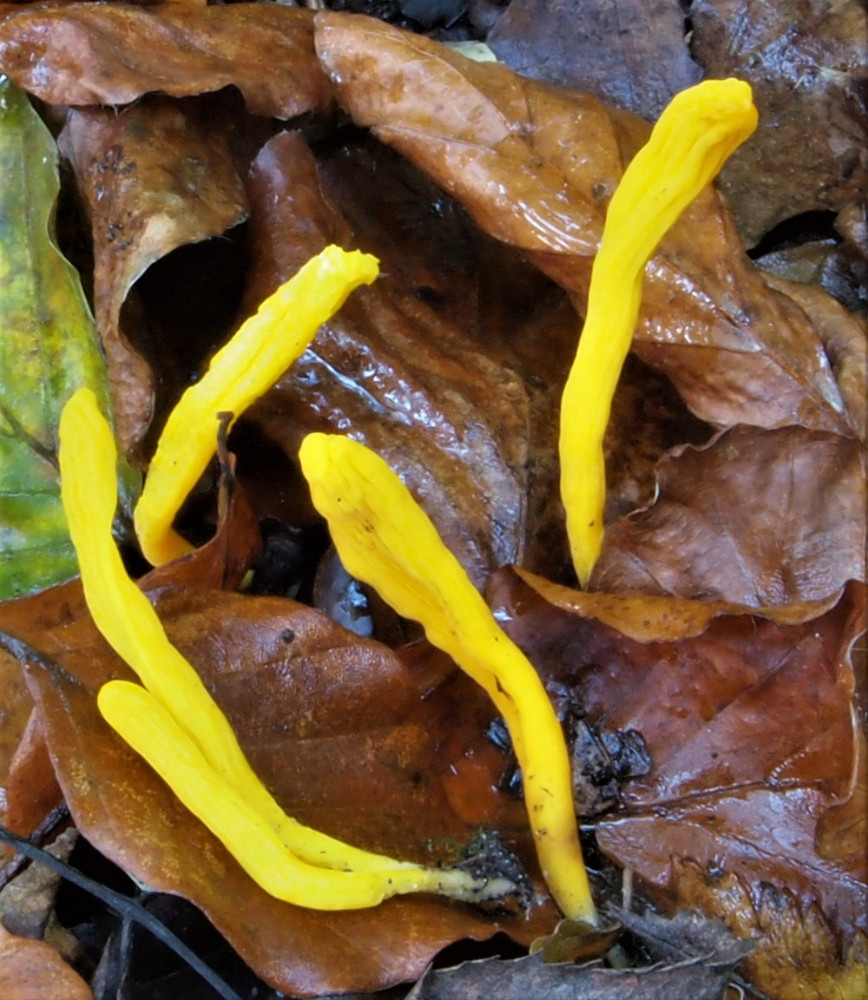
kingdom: Fungi
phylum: Basidiomycota
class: Agaricomycetes
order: Agaricales
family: Clavariaceae
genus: Clavulinopsis
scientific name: Clavulinopsis helvola
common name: orangegul køllesvamp
